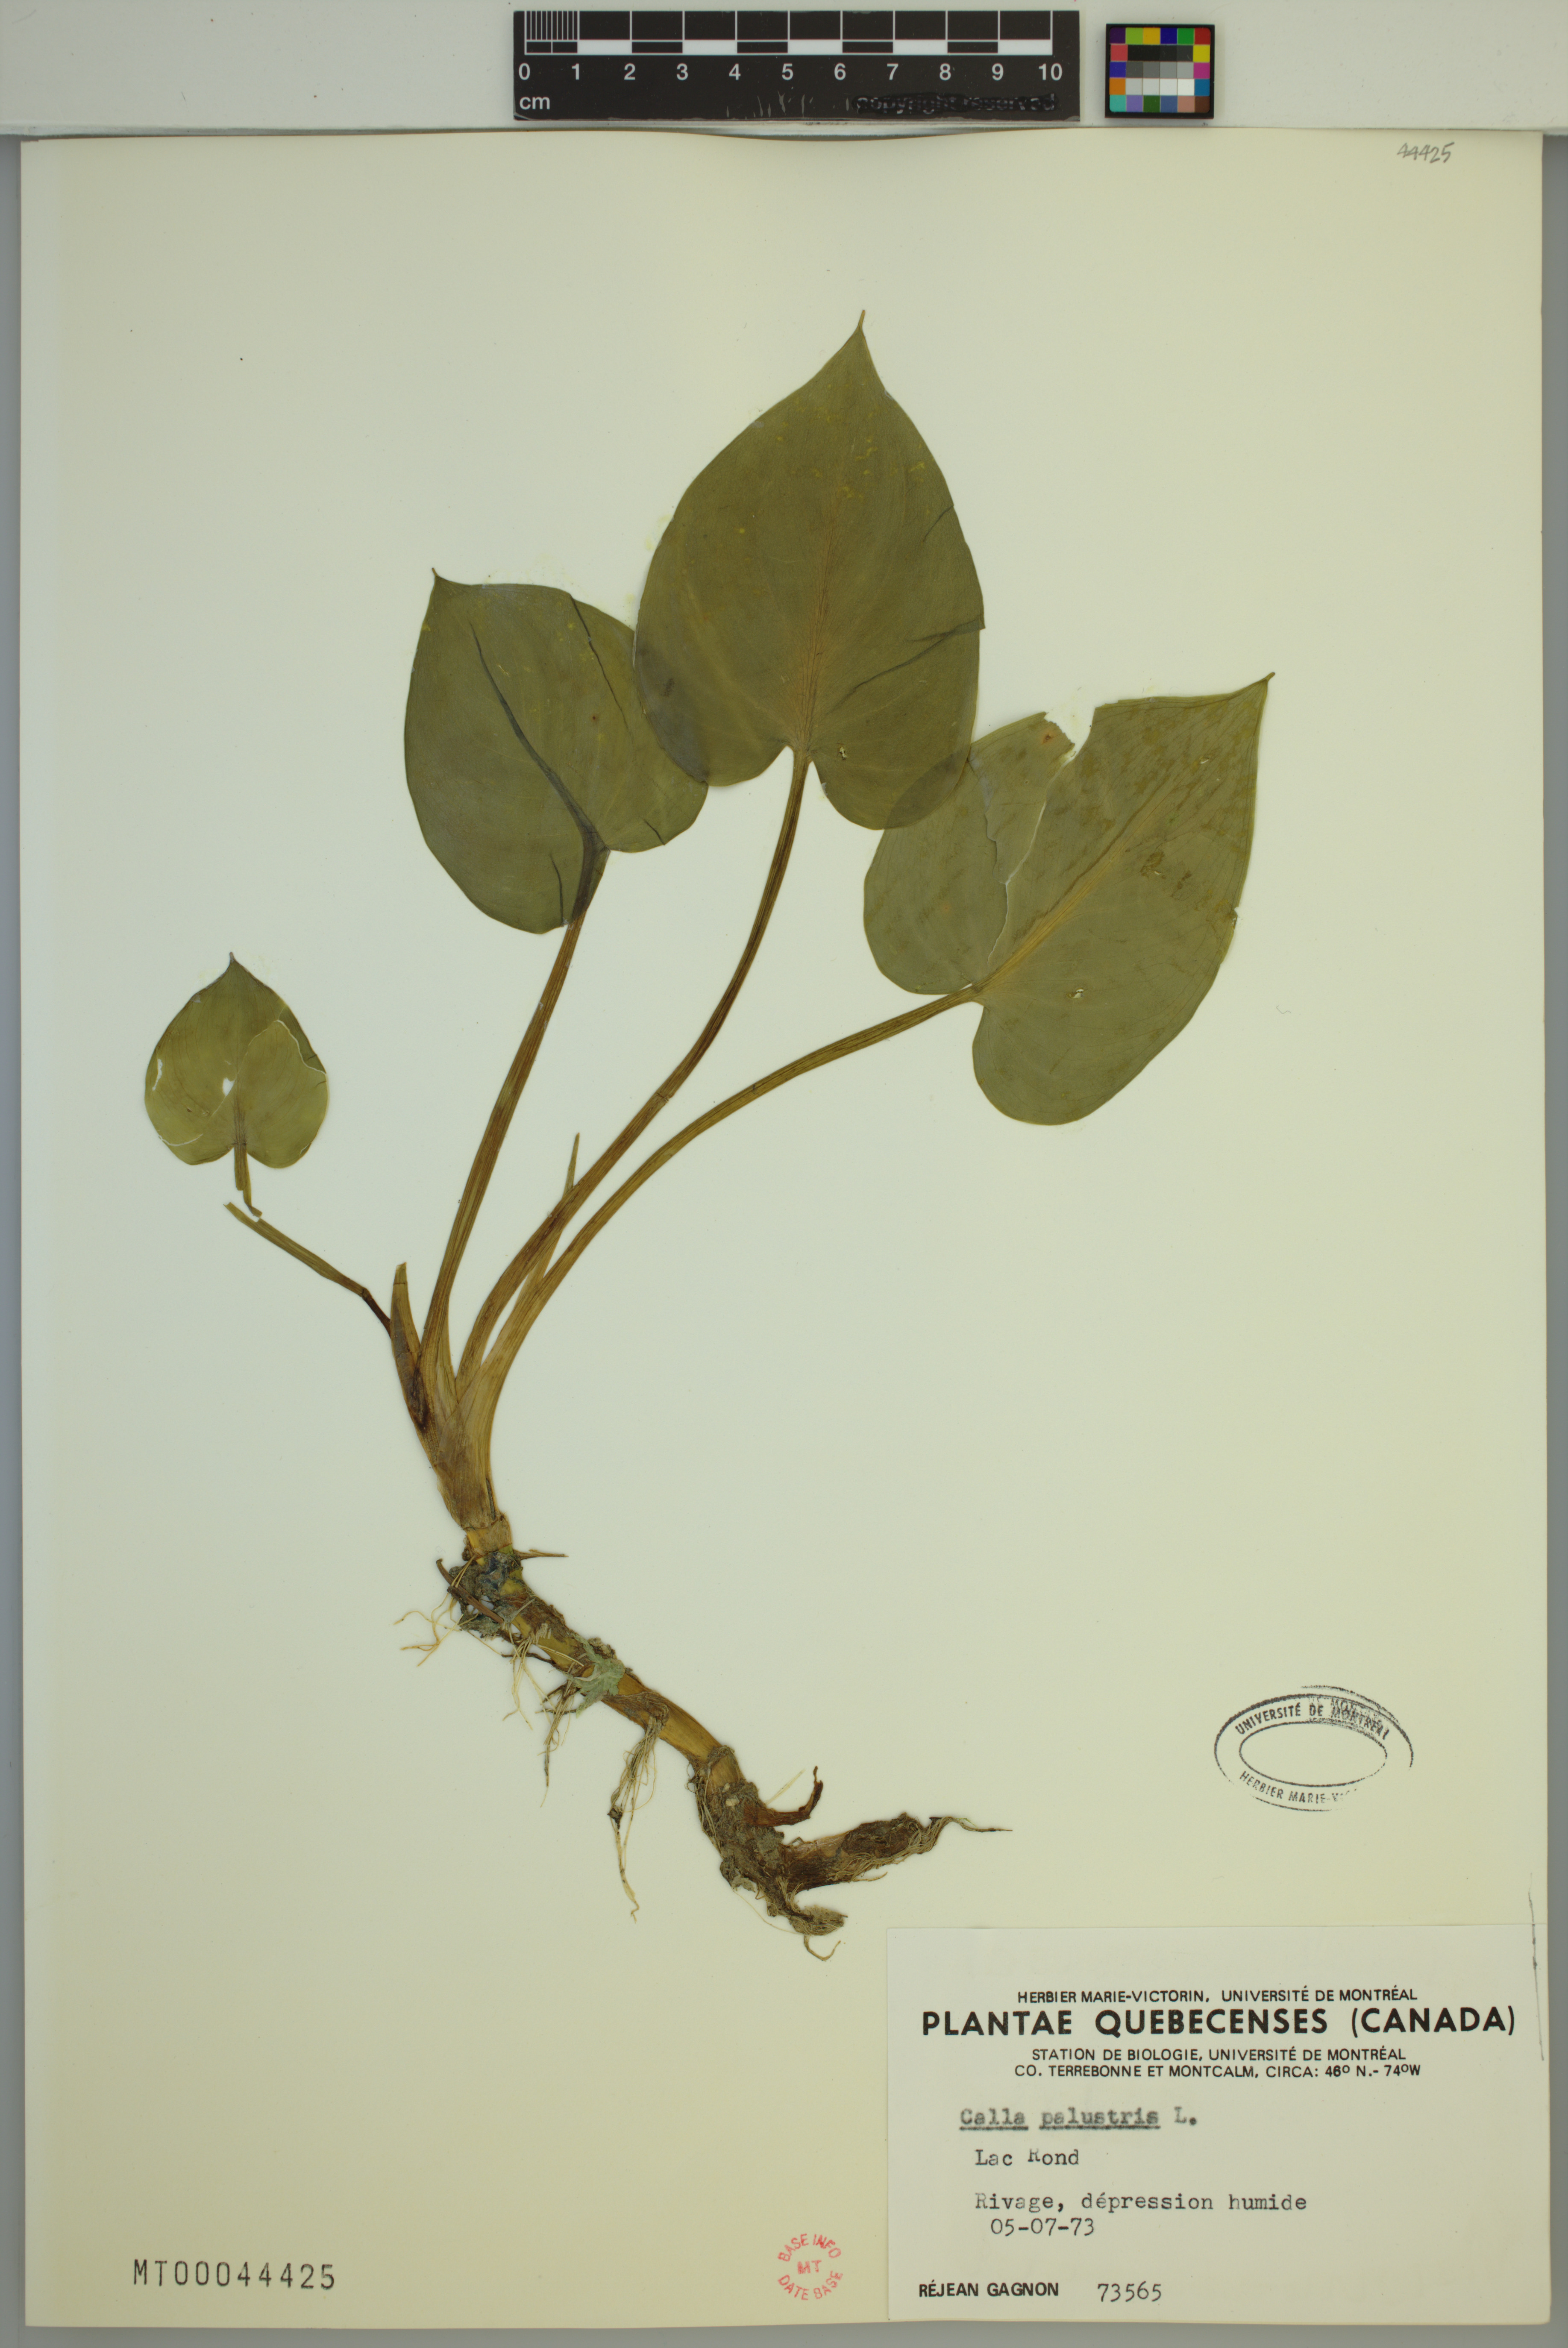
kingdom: Plantae
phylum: Tracheophyta
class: Liliopsida
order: Alismatales
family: Araceae
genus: Calla
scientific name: Calla palustris
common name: Bog arum
